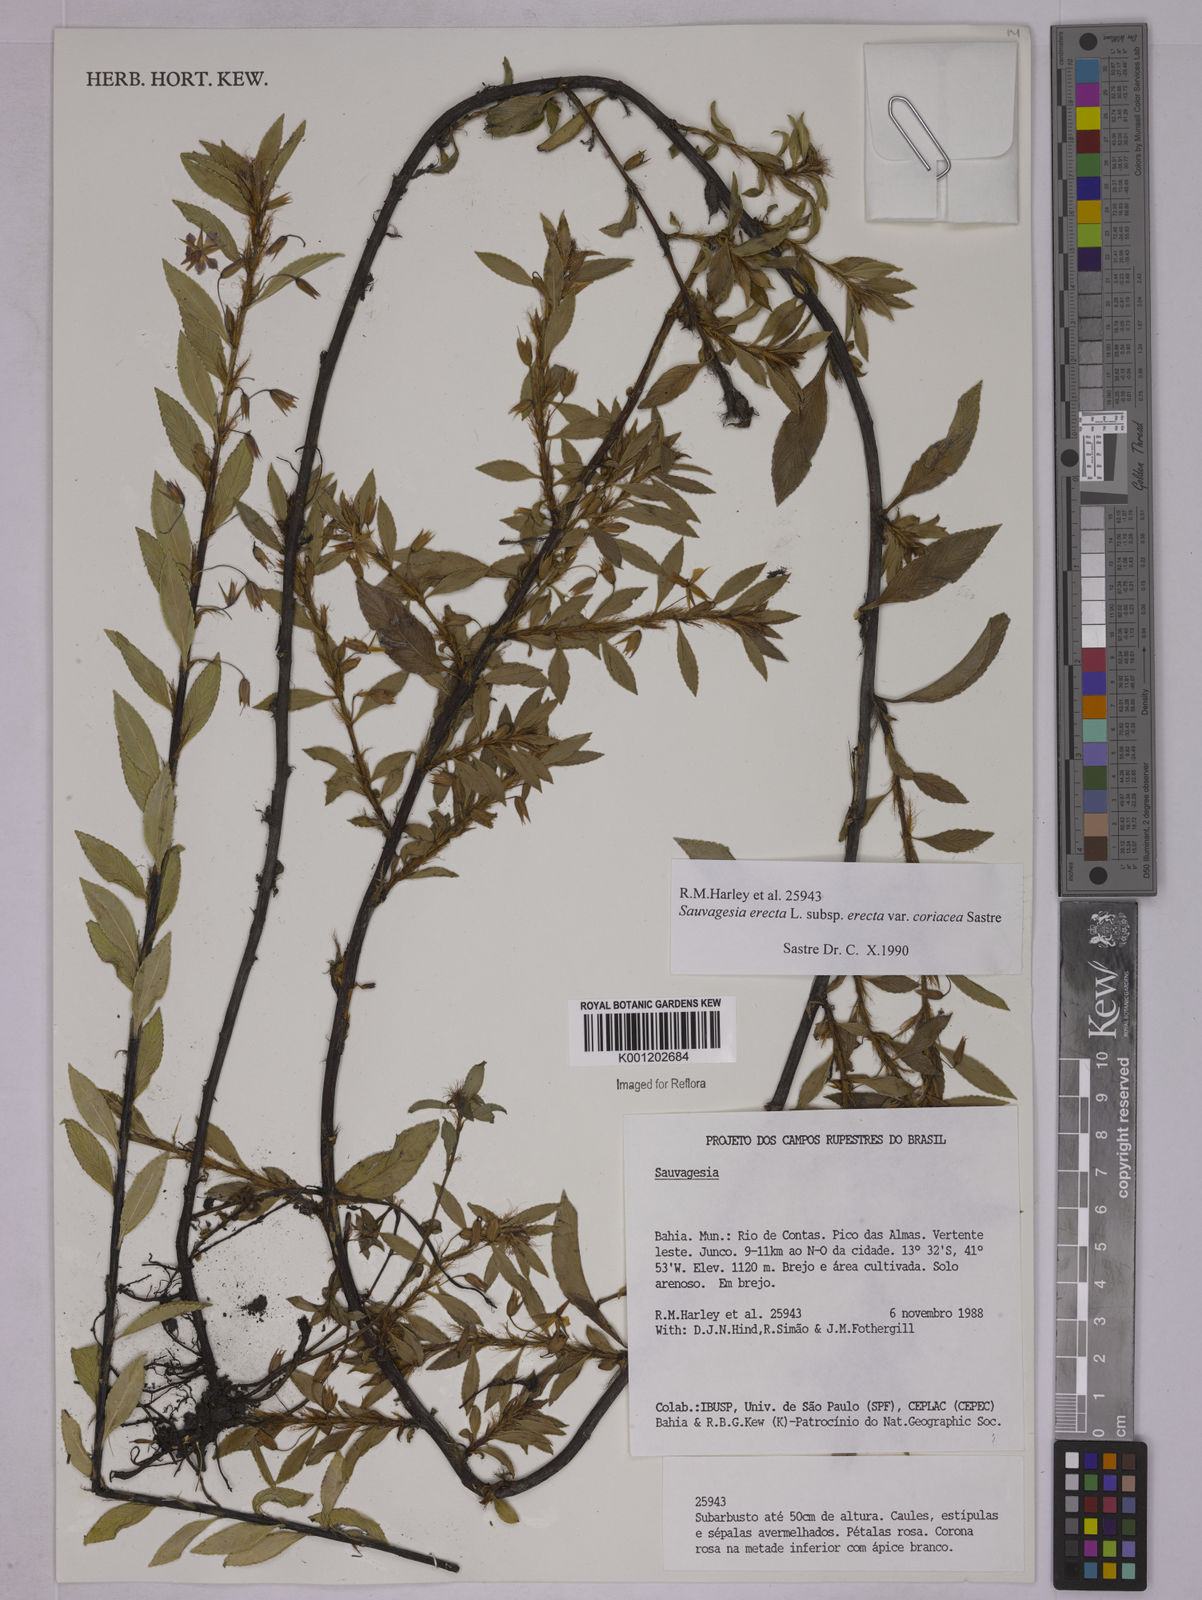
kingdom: Plantae
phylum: Tracheophyta
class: Magnoliopsida
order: Malpighiales
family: Ochnaceae
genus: Sauvagesia
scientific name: Sauvagesia erecta
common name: Creole tea
